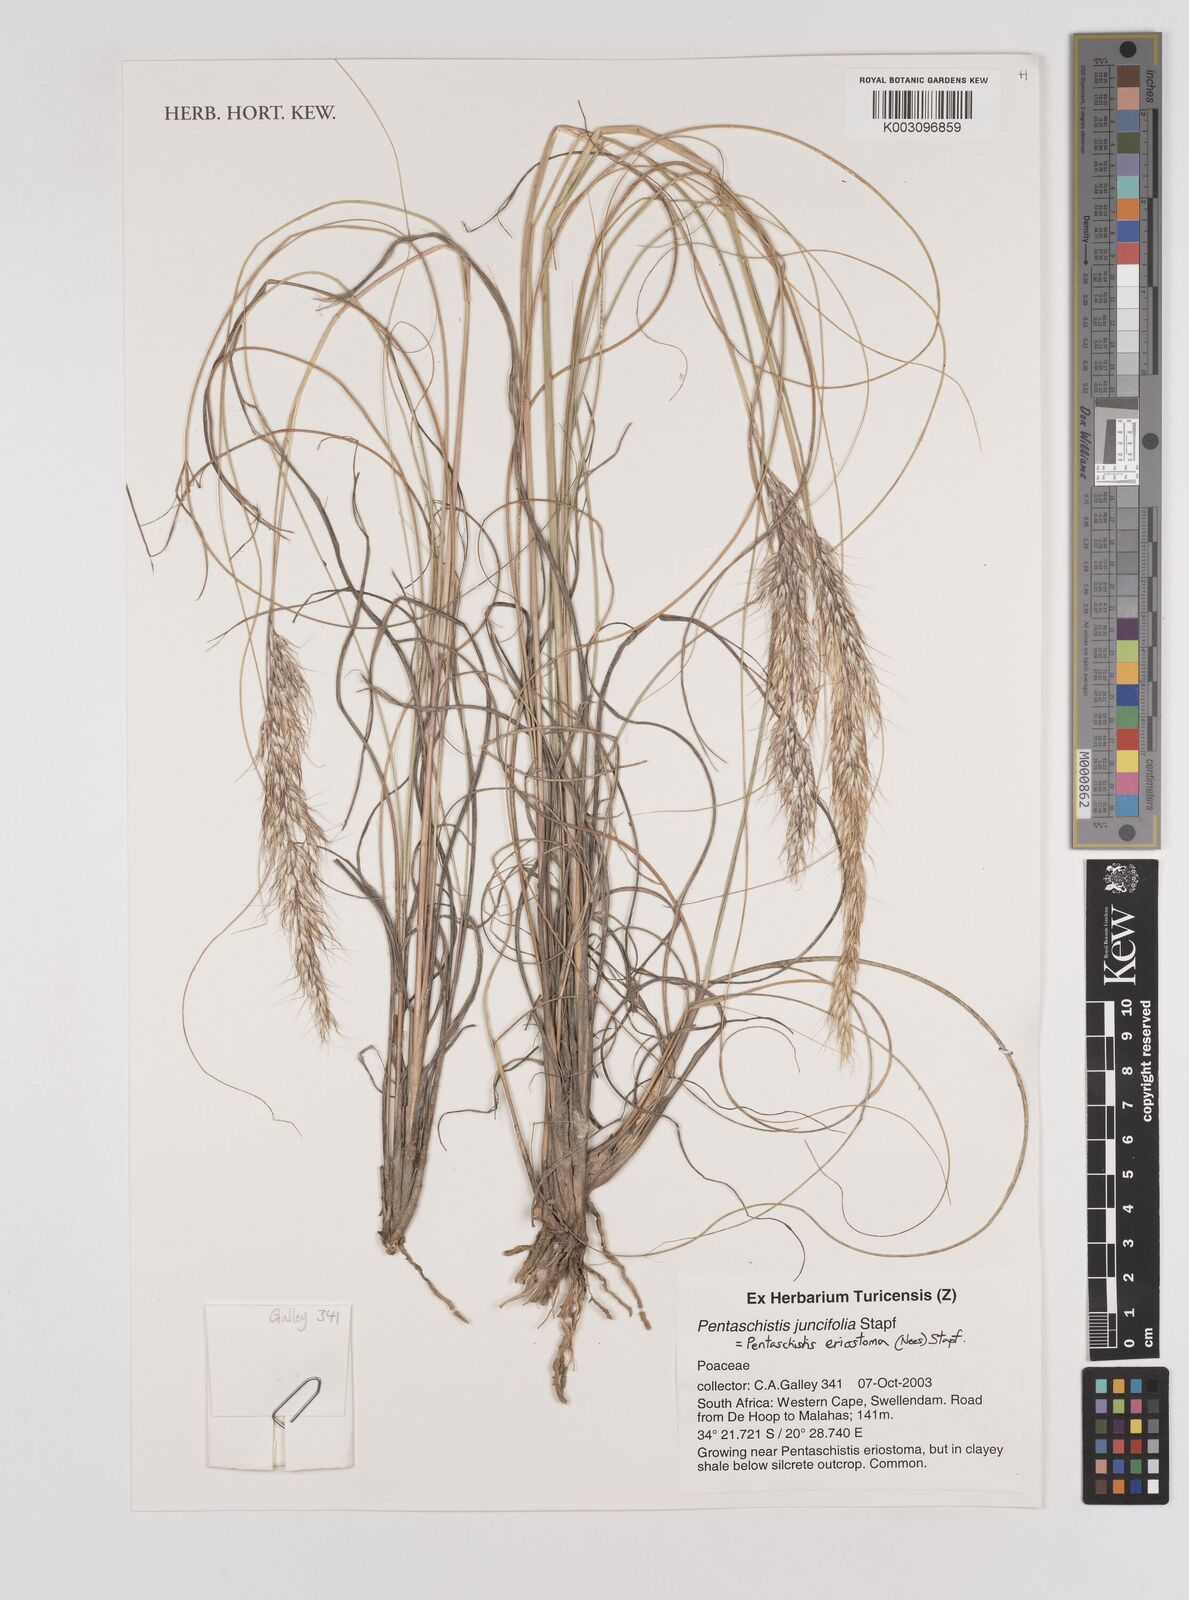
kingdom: Plantae
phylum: Tracheophyta
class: Liliopsida
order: Poales
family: Poaceae
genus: Pentameris
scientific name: Pentameris eriostoma
